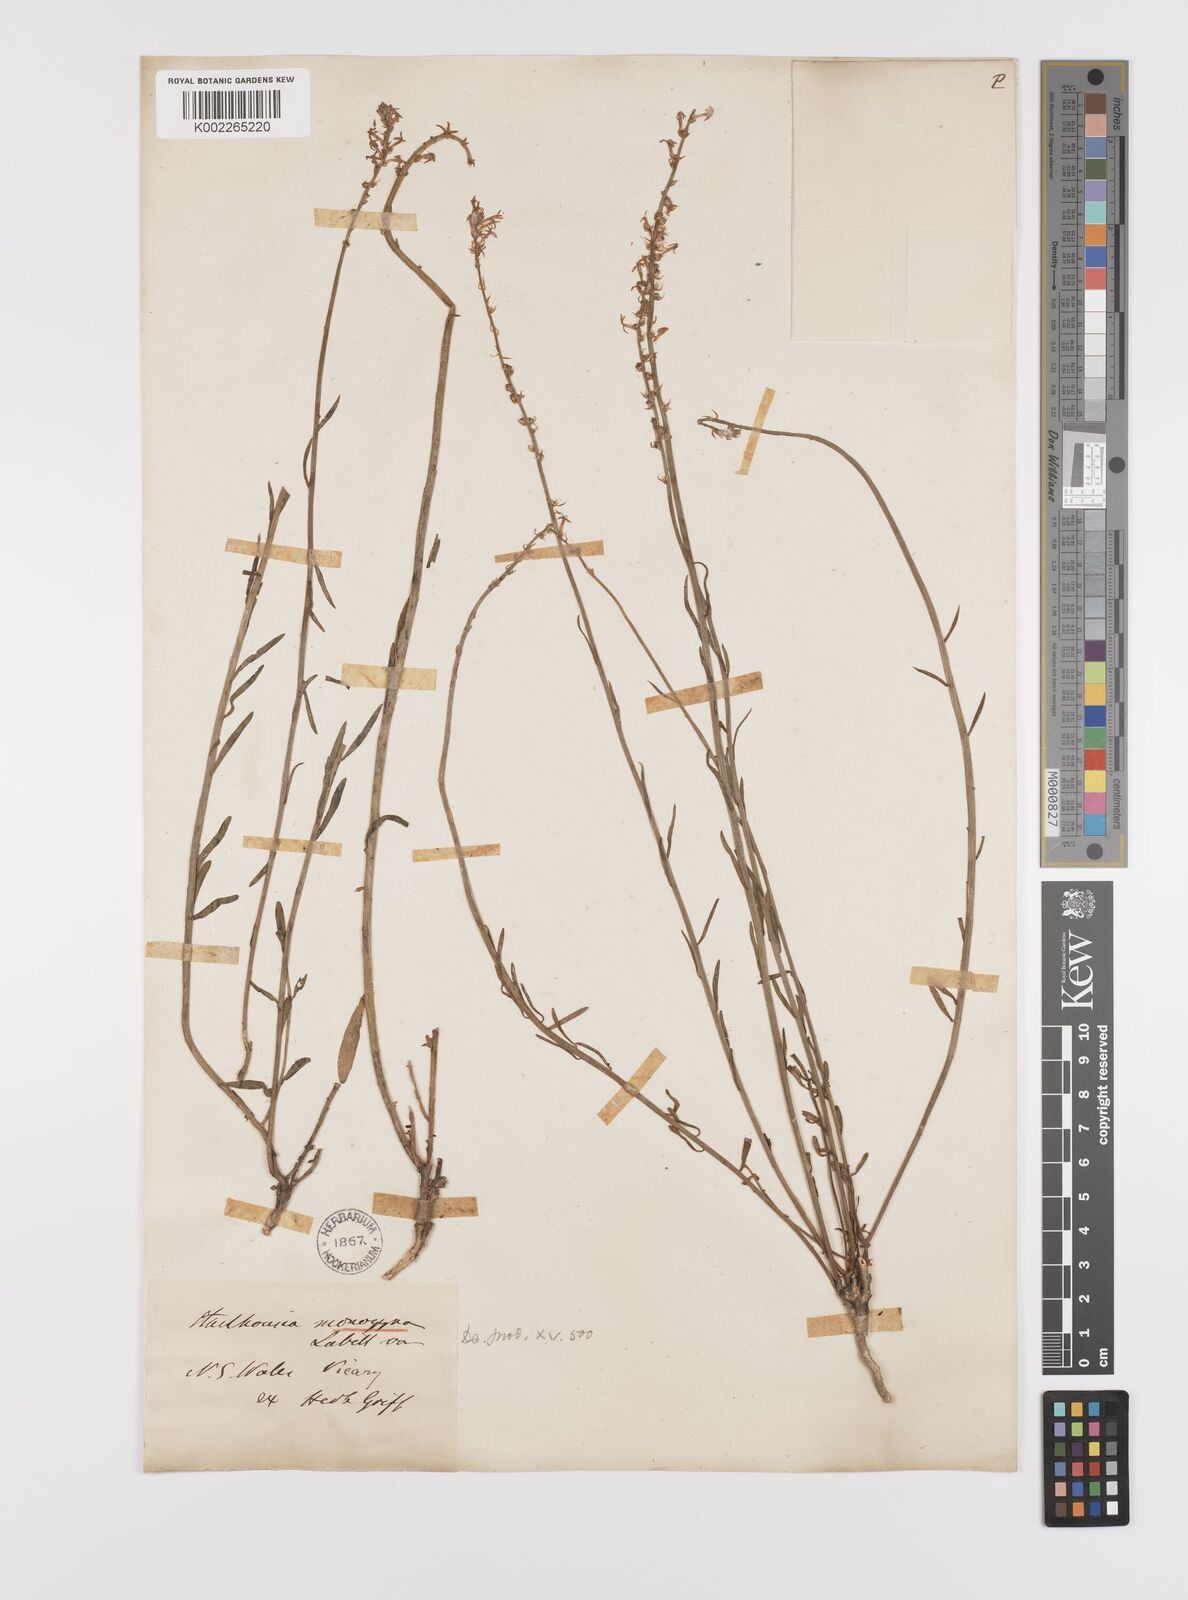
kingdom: Plantae
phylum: Tracheophyta
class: Magnoliopsida
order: Celastrales
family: Celastraceae
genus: Stackhousia
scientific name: Stackhousia monogyna
